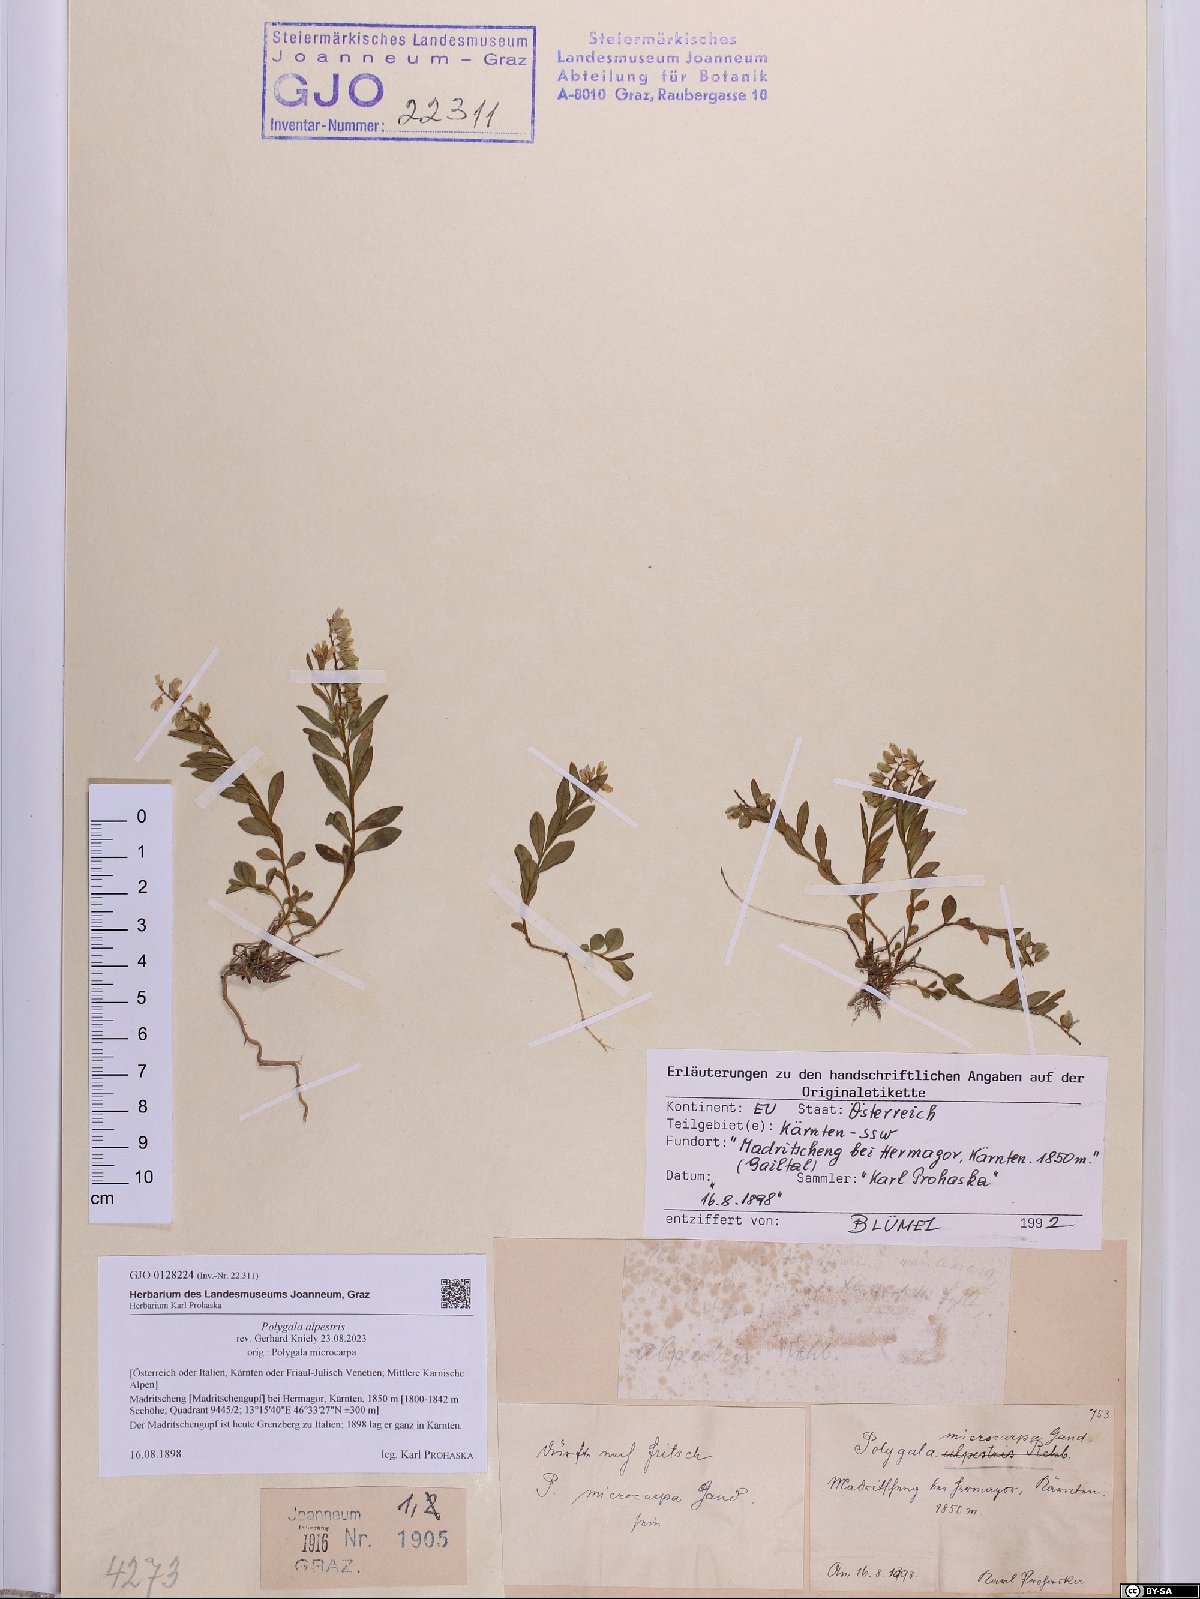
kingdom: Plantae
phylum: Tracheophyta
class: Magnoliopsida
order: Fabales
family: Polygalaceae
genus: Polygala
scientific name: Polygala alpestris
